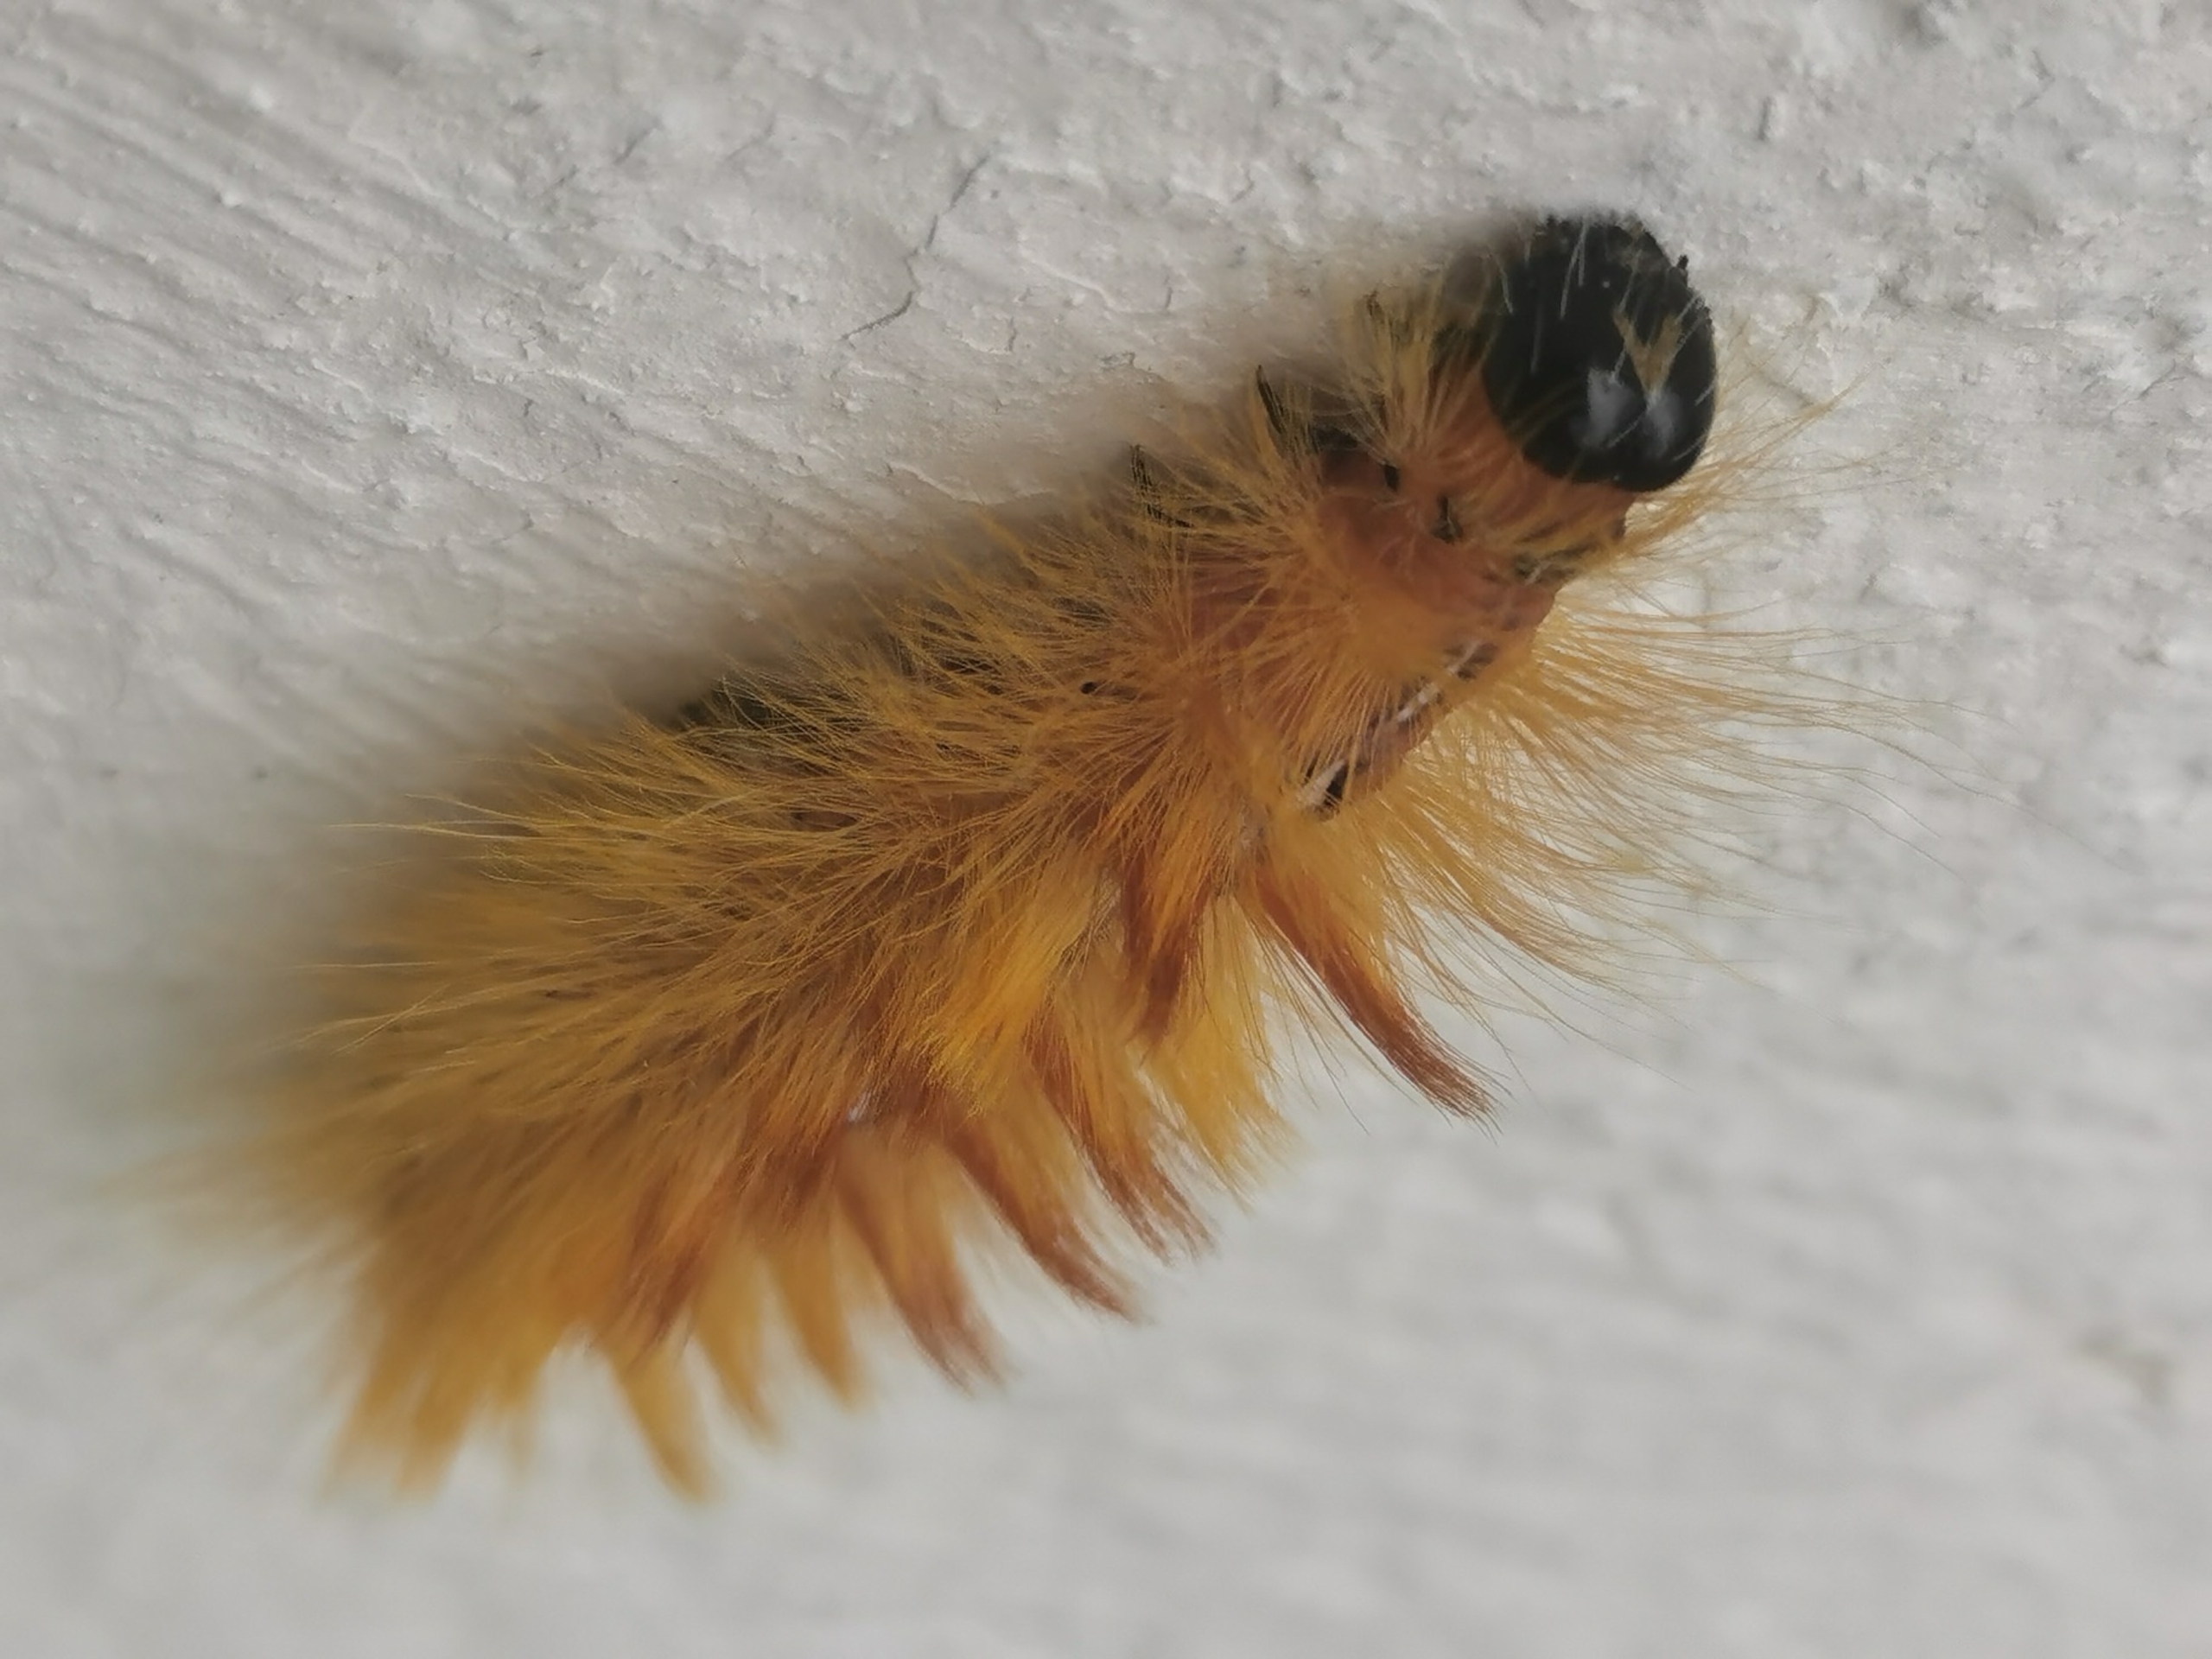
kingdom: Animalia
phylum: Arthropoda
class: Insecta
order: Lepidoptera
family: Noctuidae
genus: Acronicta
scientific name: Acronicta aceris
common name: Ahornugle
